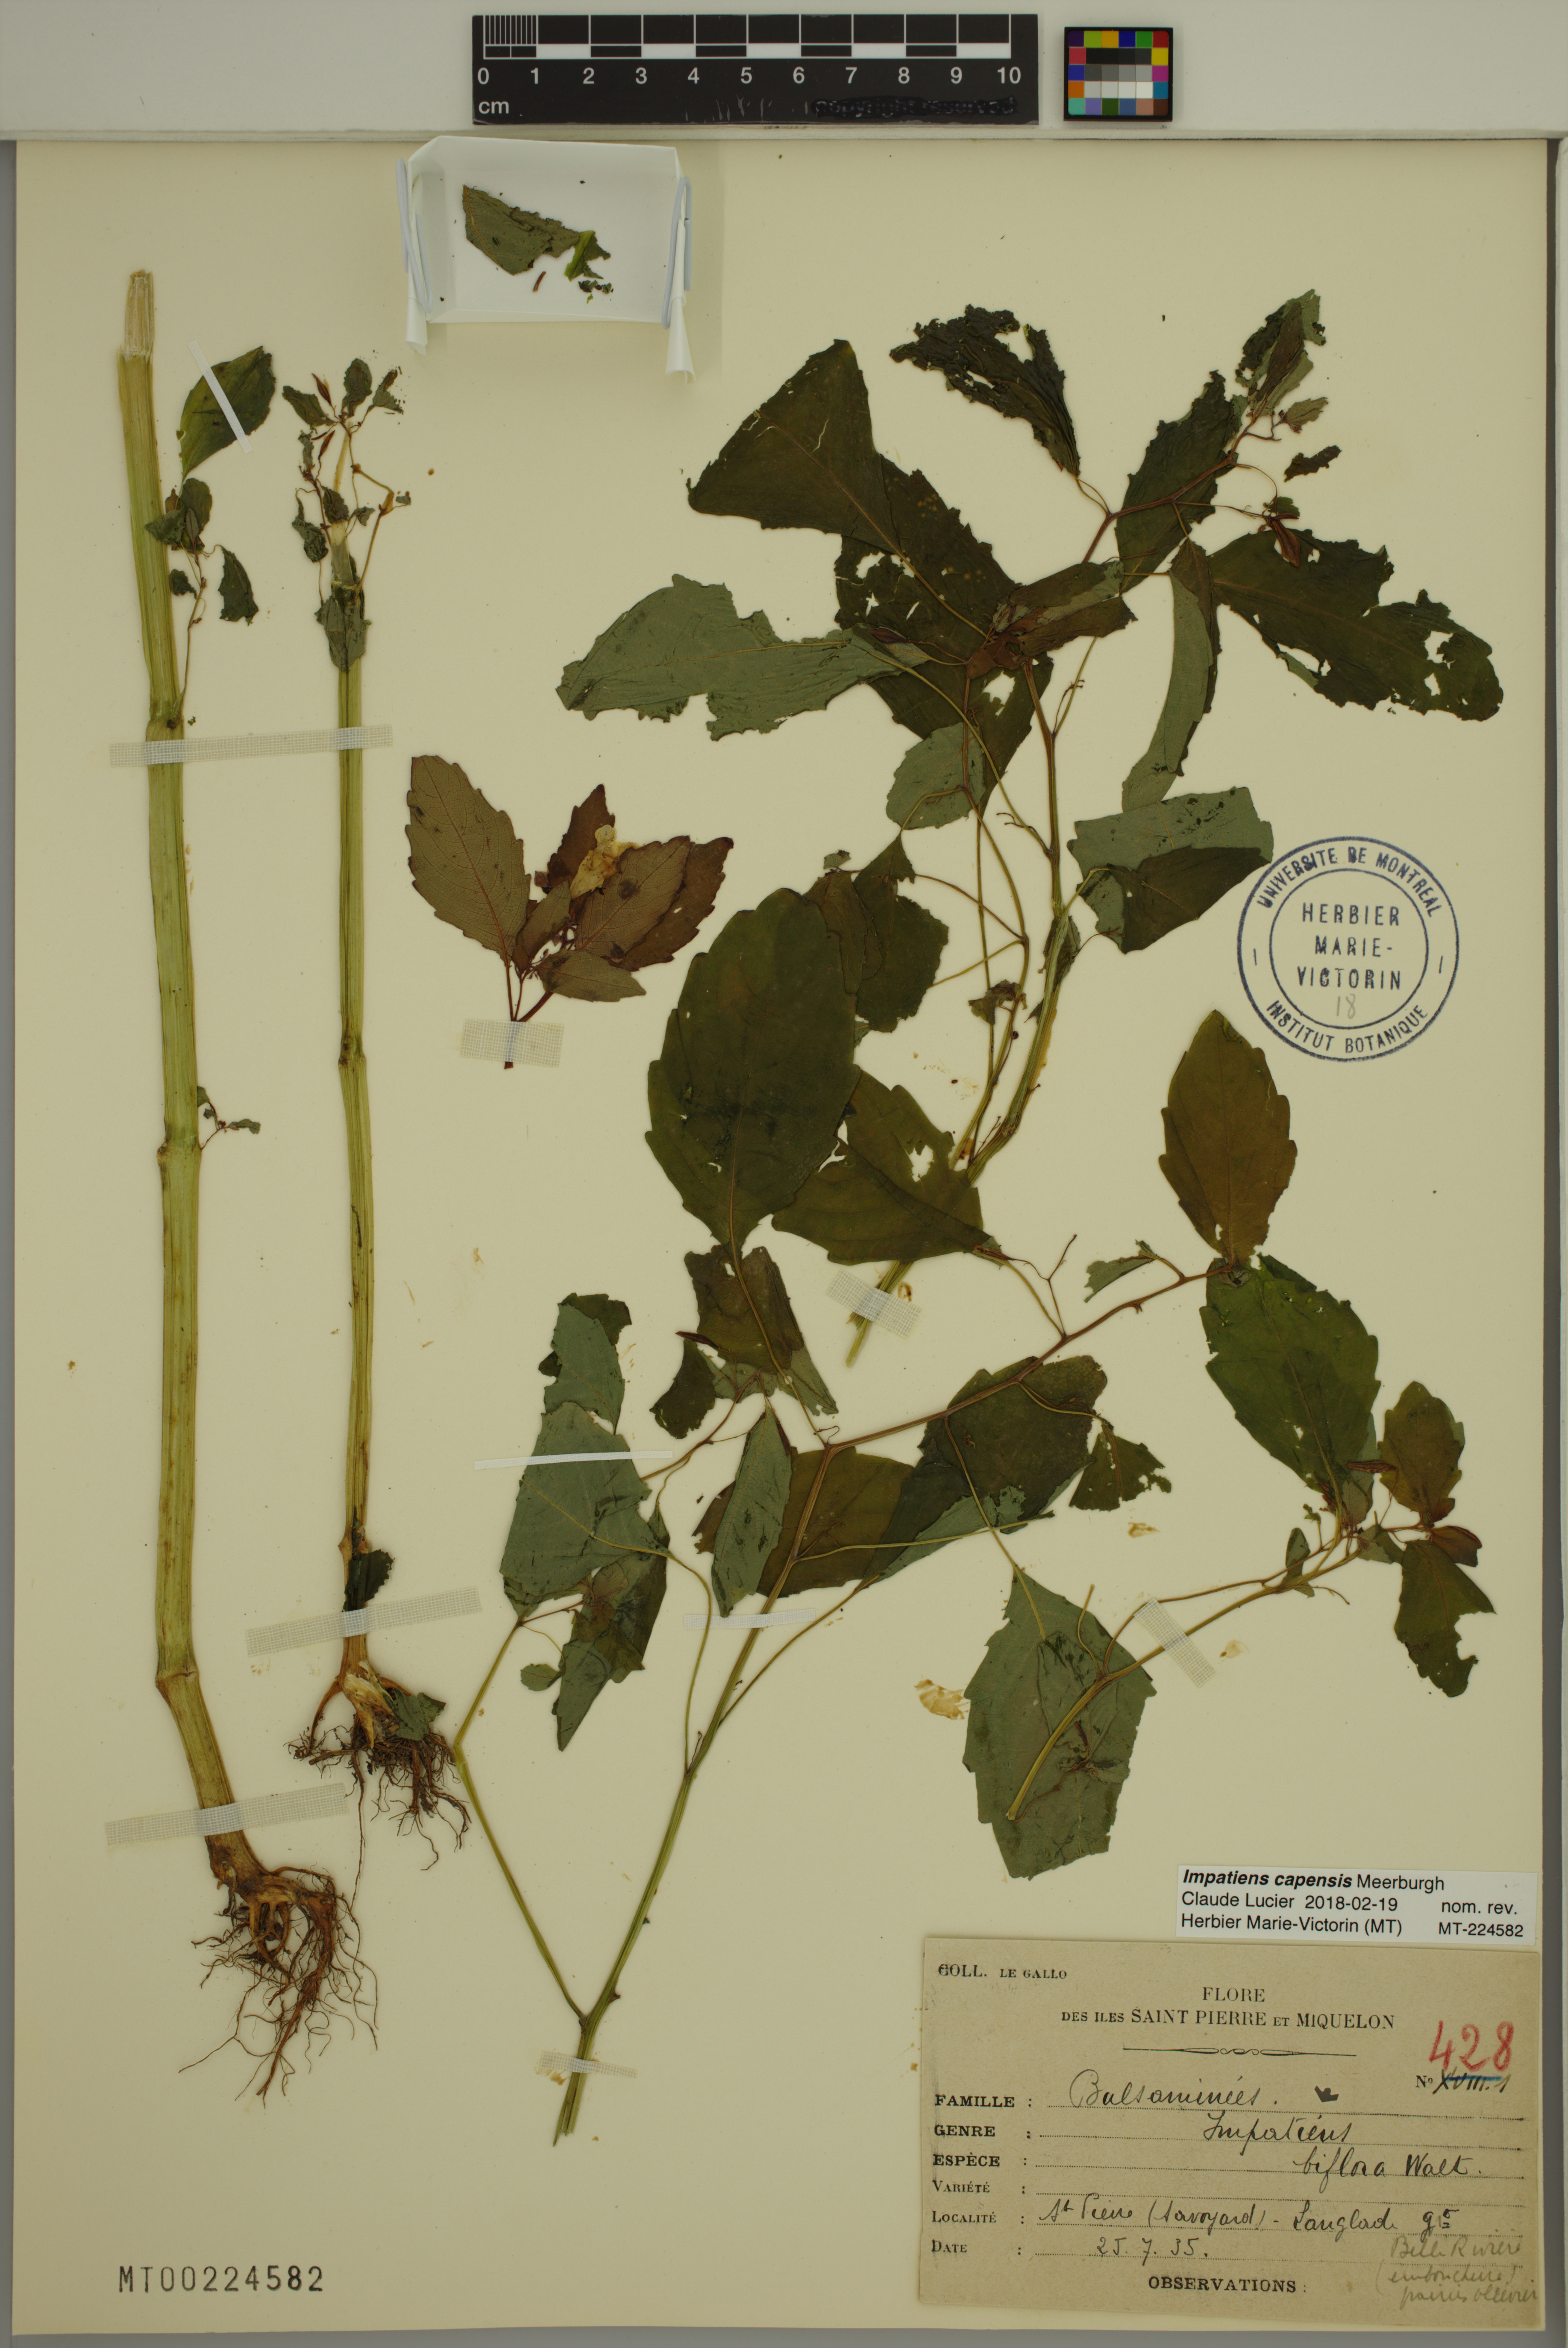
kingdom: Plantae
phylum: Tracheophyta
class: Magnoliopsida
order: Ericales
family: Balsaminaceae
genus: Impatiens
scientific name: Impatiens capensis
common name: Orange balsam
